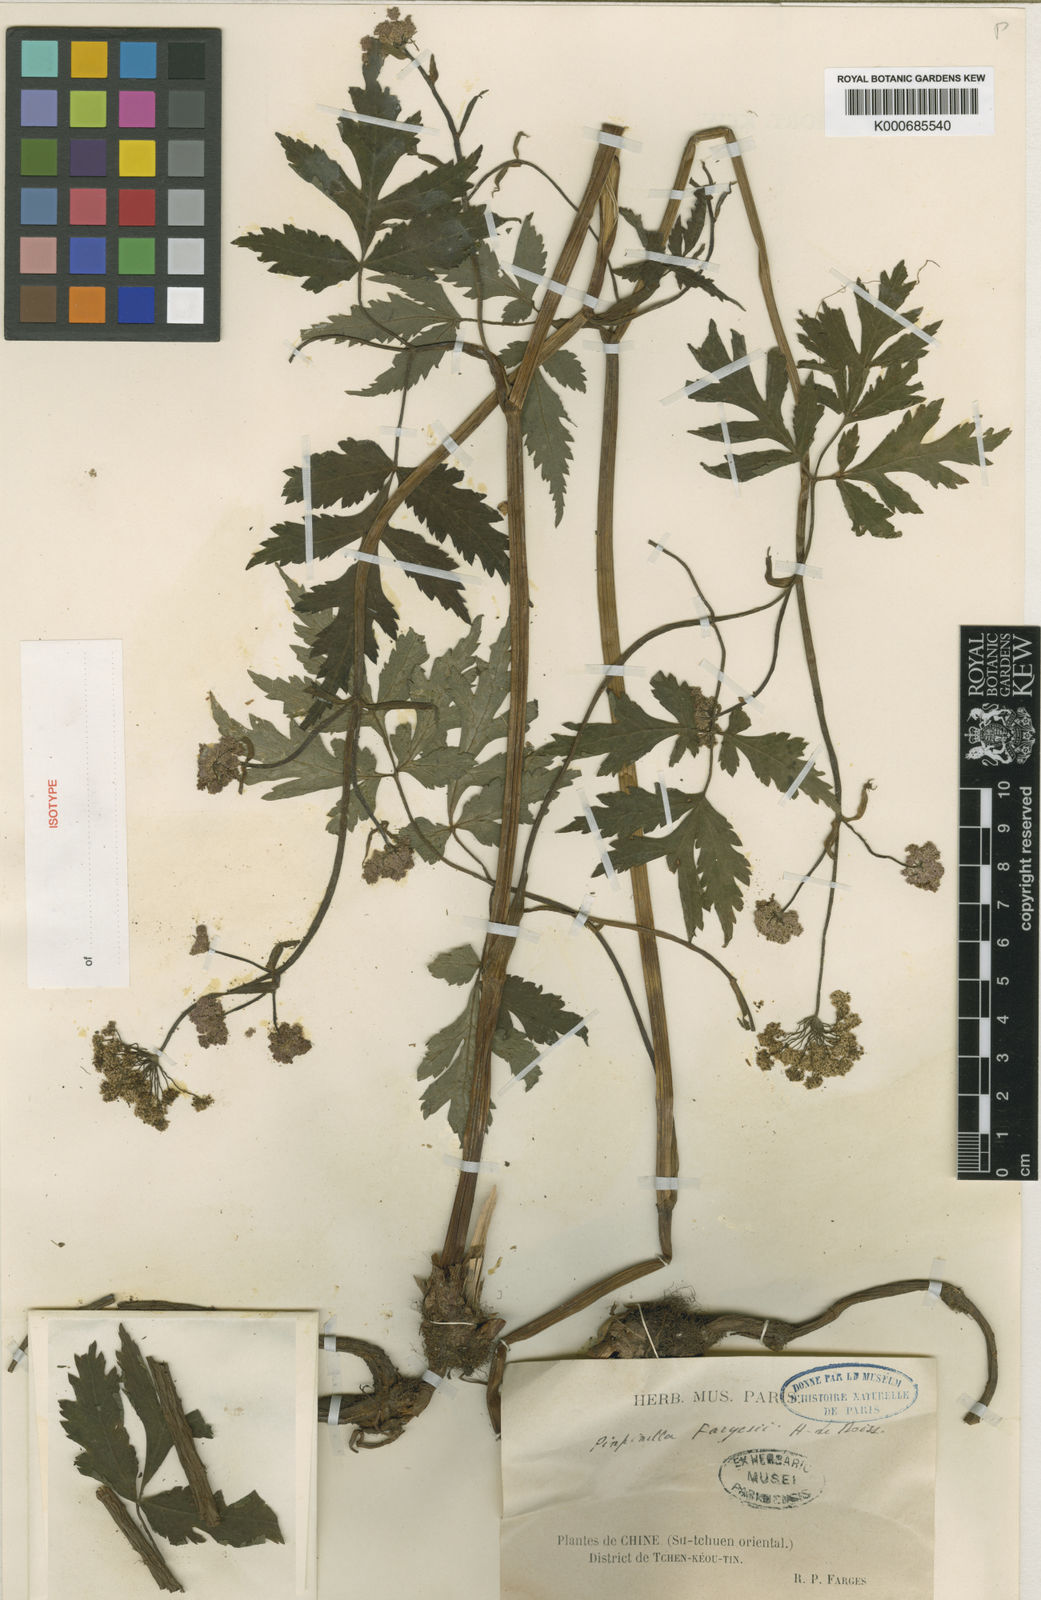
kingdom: Plantae
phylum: Tracheophyta
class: Magnoliopsida
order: Apiales
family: Apiaceae
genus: Pimpinella
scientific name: Pimpinella fargesii
